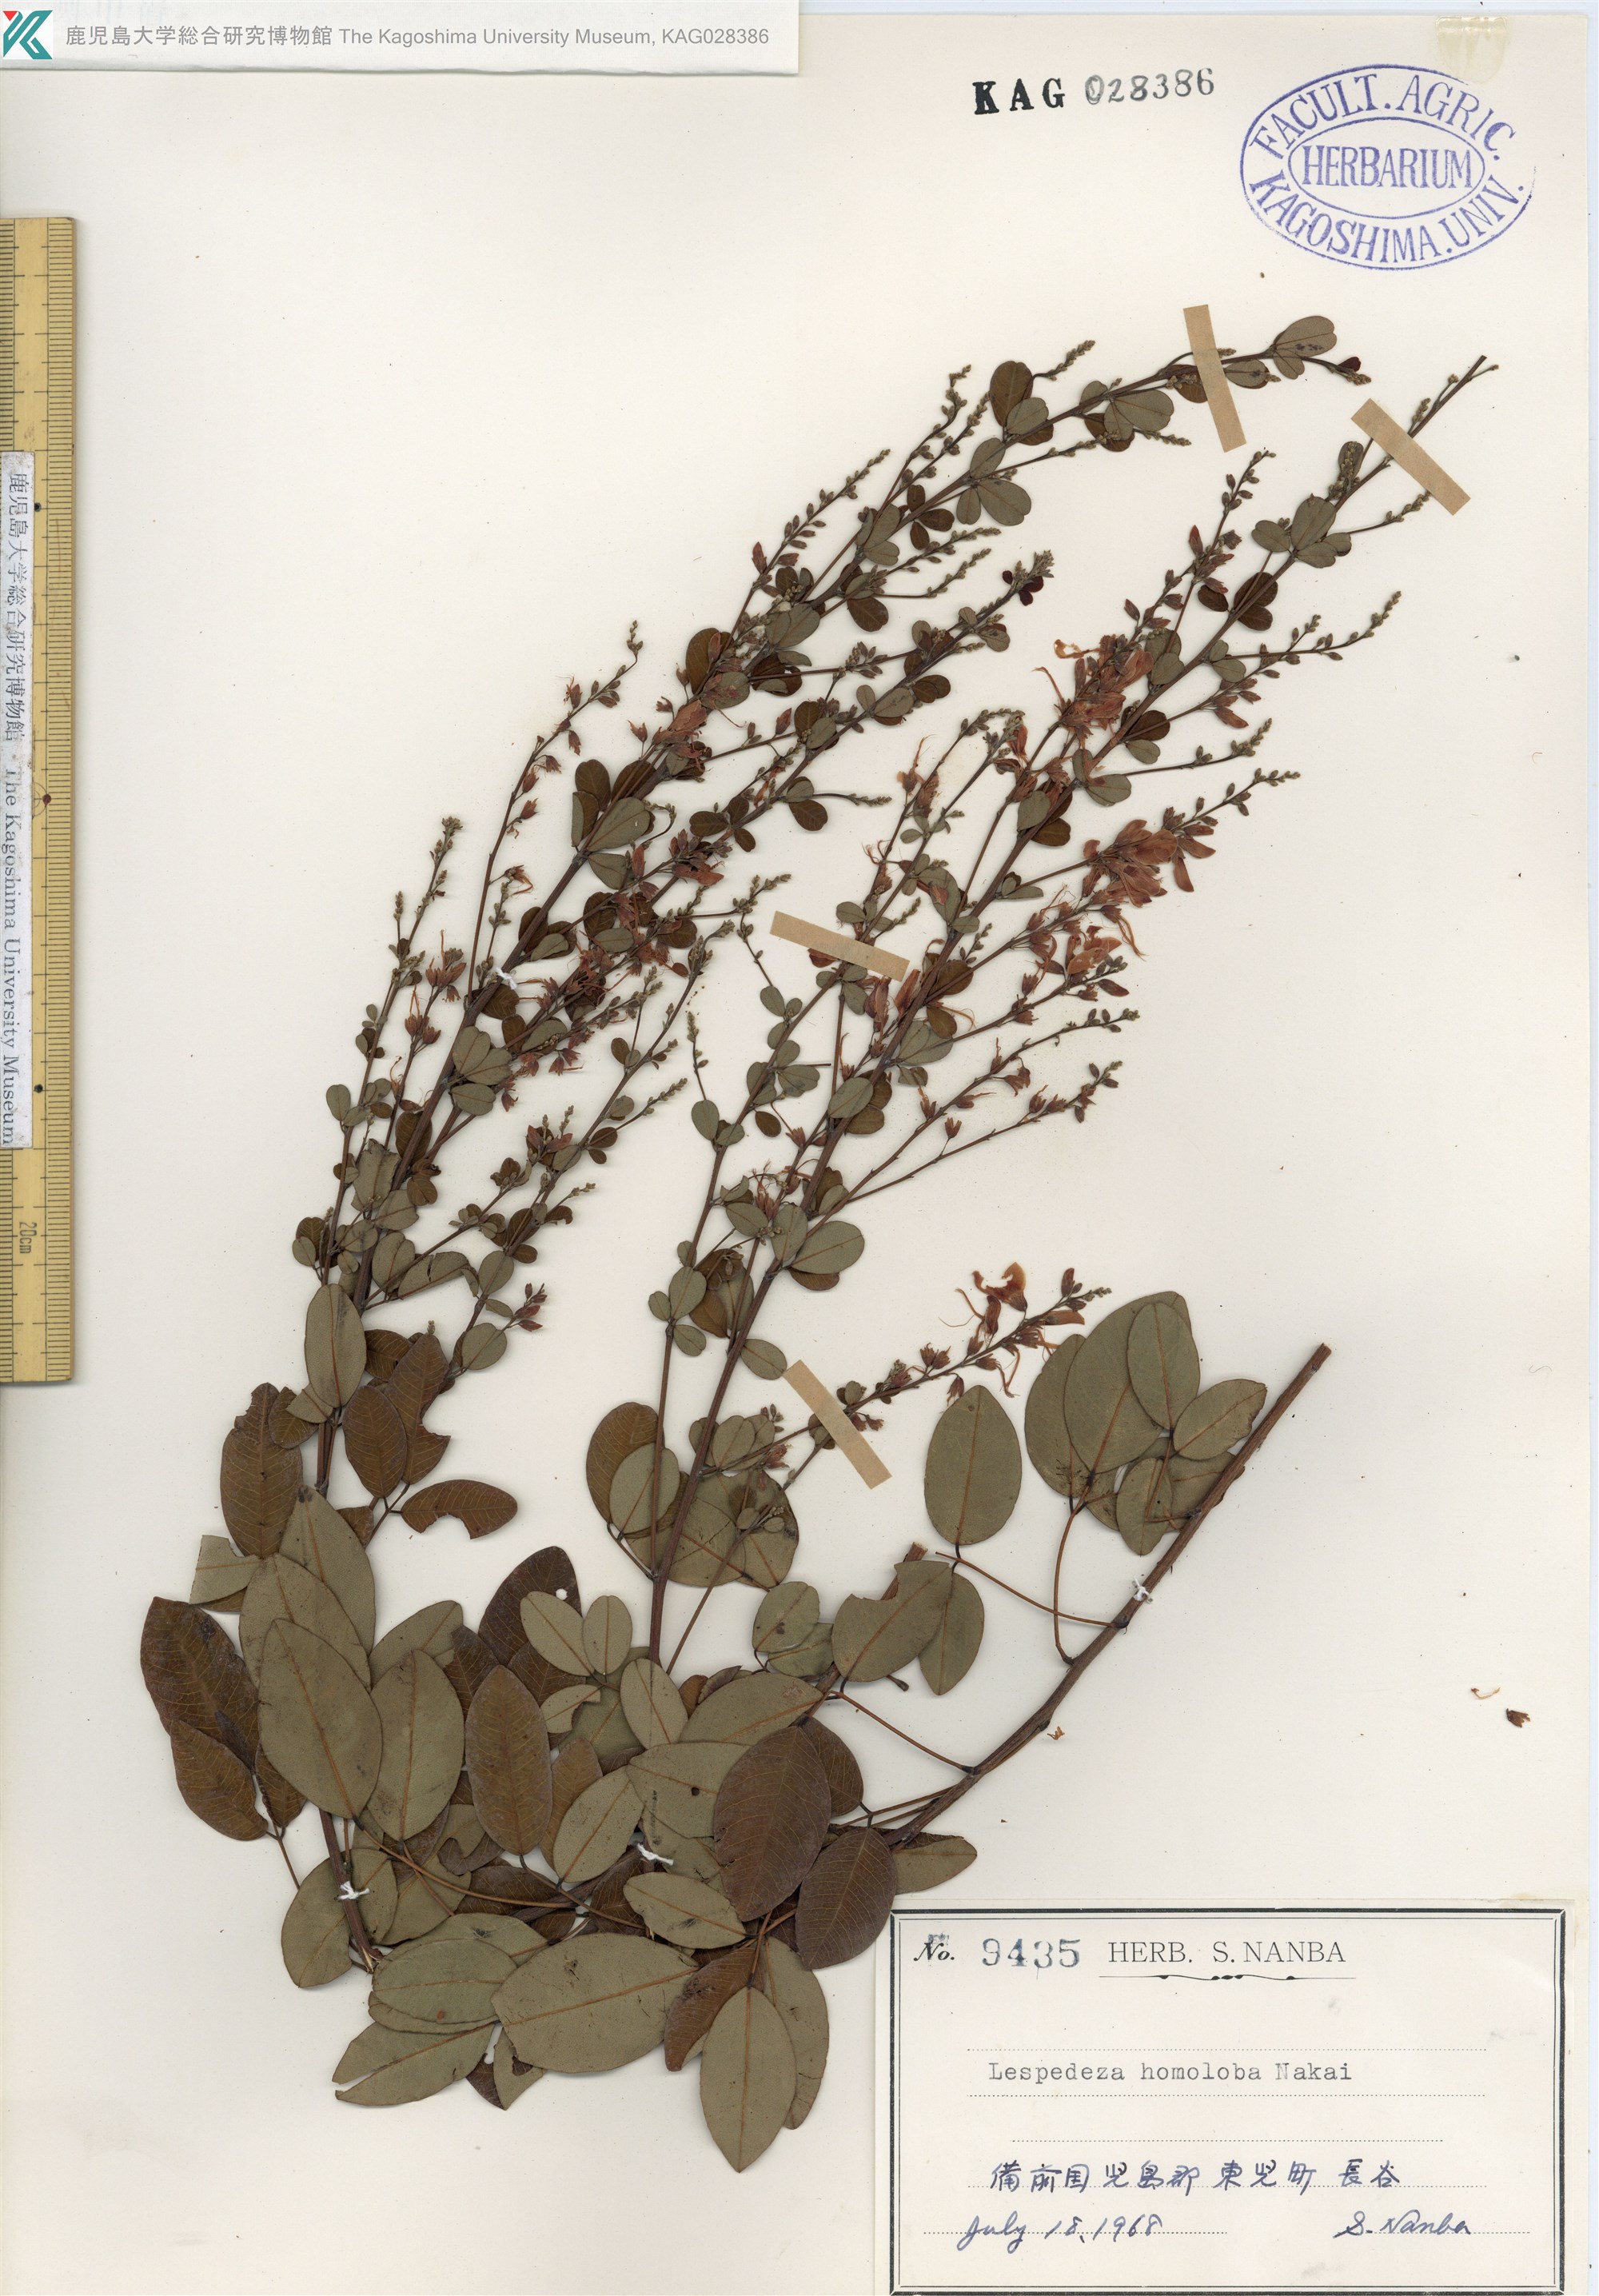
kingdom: Plantae
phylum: Tracheophyta
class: Magnoliopsida
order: Fabales
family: Fabaceae
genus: Lespedeza
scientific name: Lespedeza homoloba
